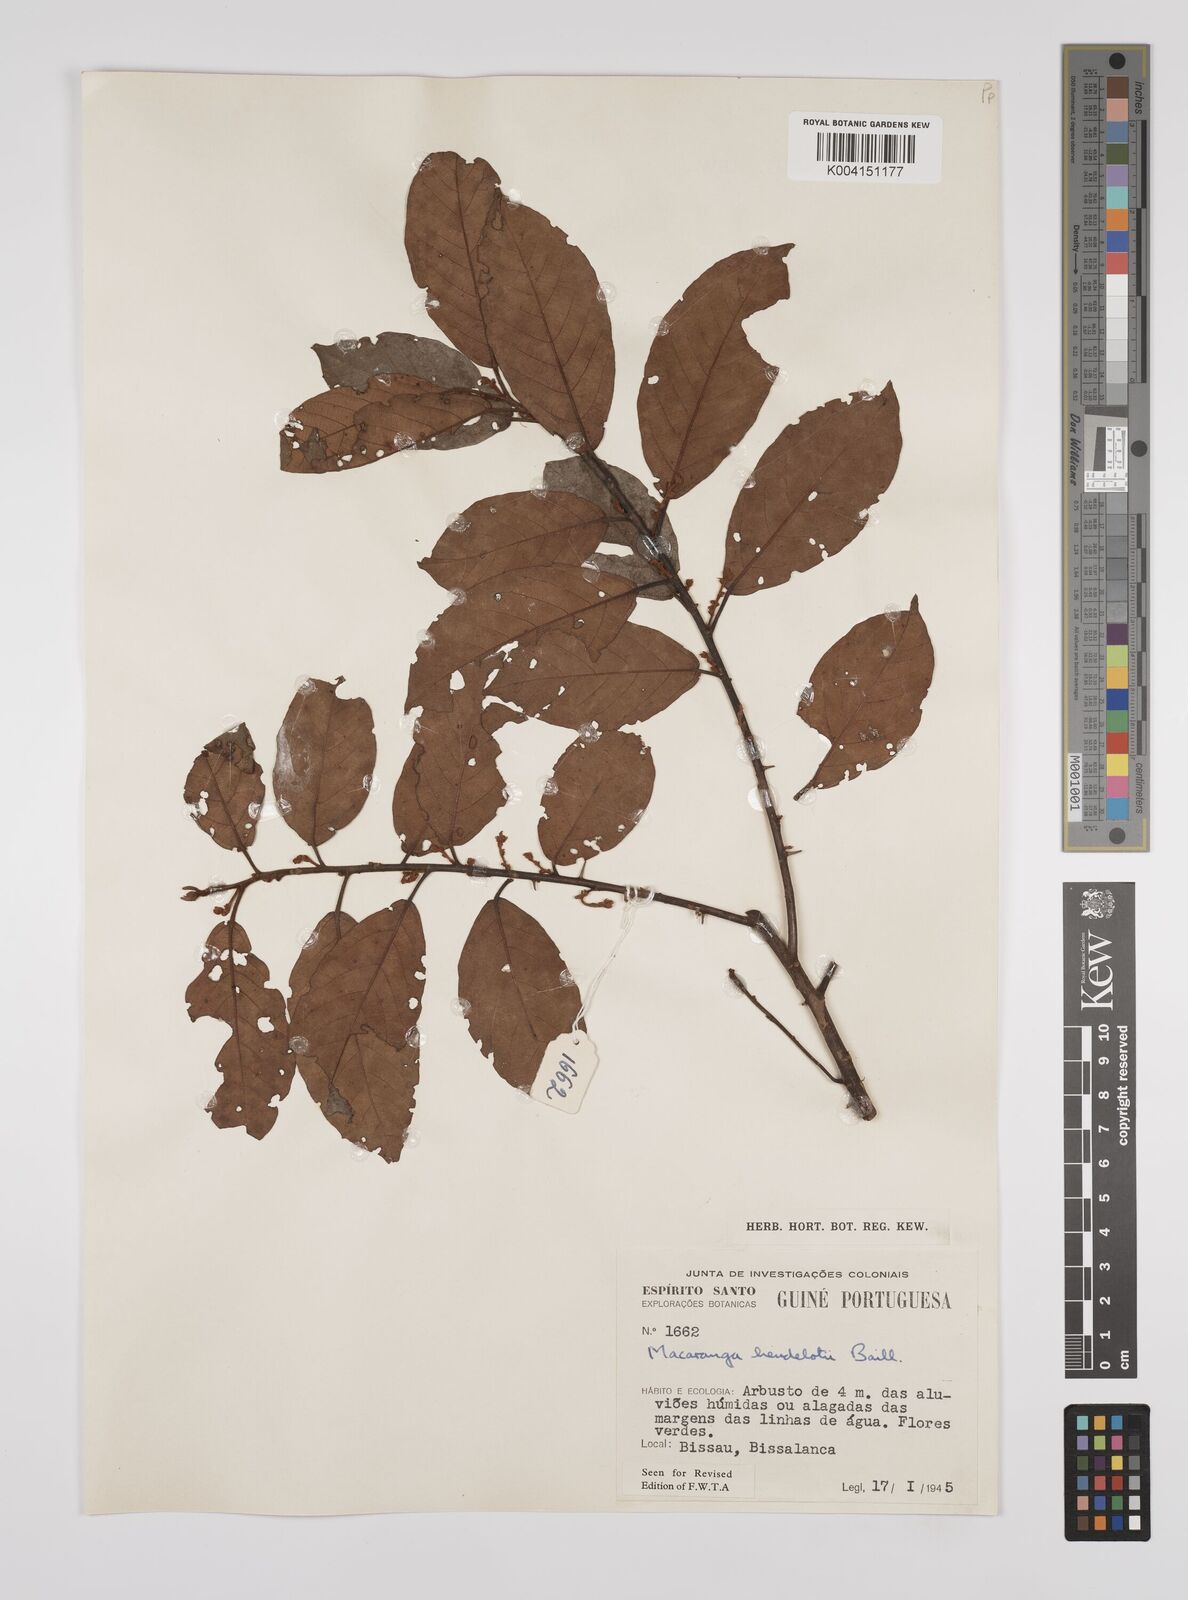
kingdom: Plantae
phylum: Tracheophyta
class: Magnoliopsida
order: Malpighiales
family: Euphorbiaceae
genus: Macaranga
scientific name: Macaranga heudelotii
